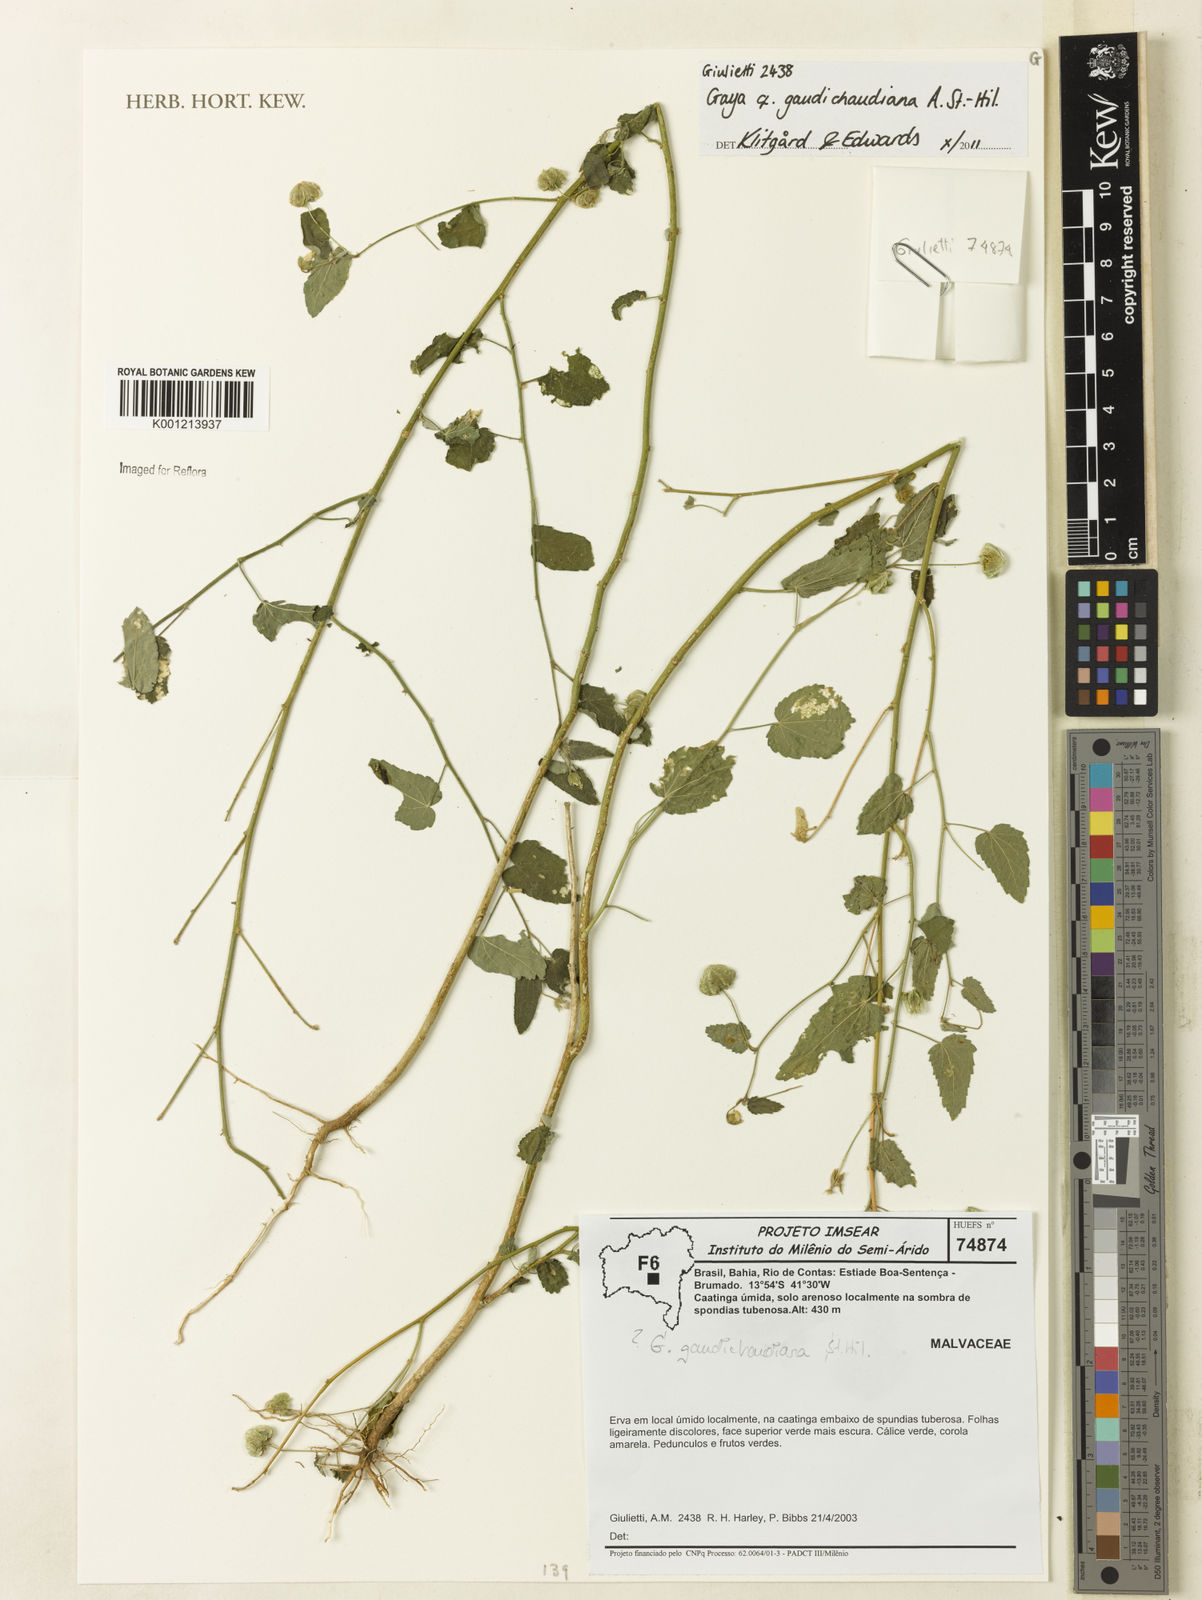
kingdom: Plantae
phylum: Tracheophyta
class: Magnoliopsida
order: Malvales
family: Malvaceae
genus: Gaya
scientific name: Gaya gaudichaudiana
